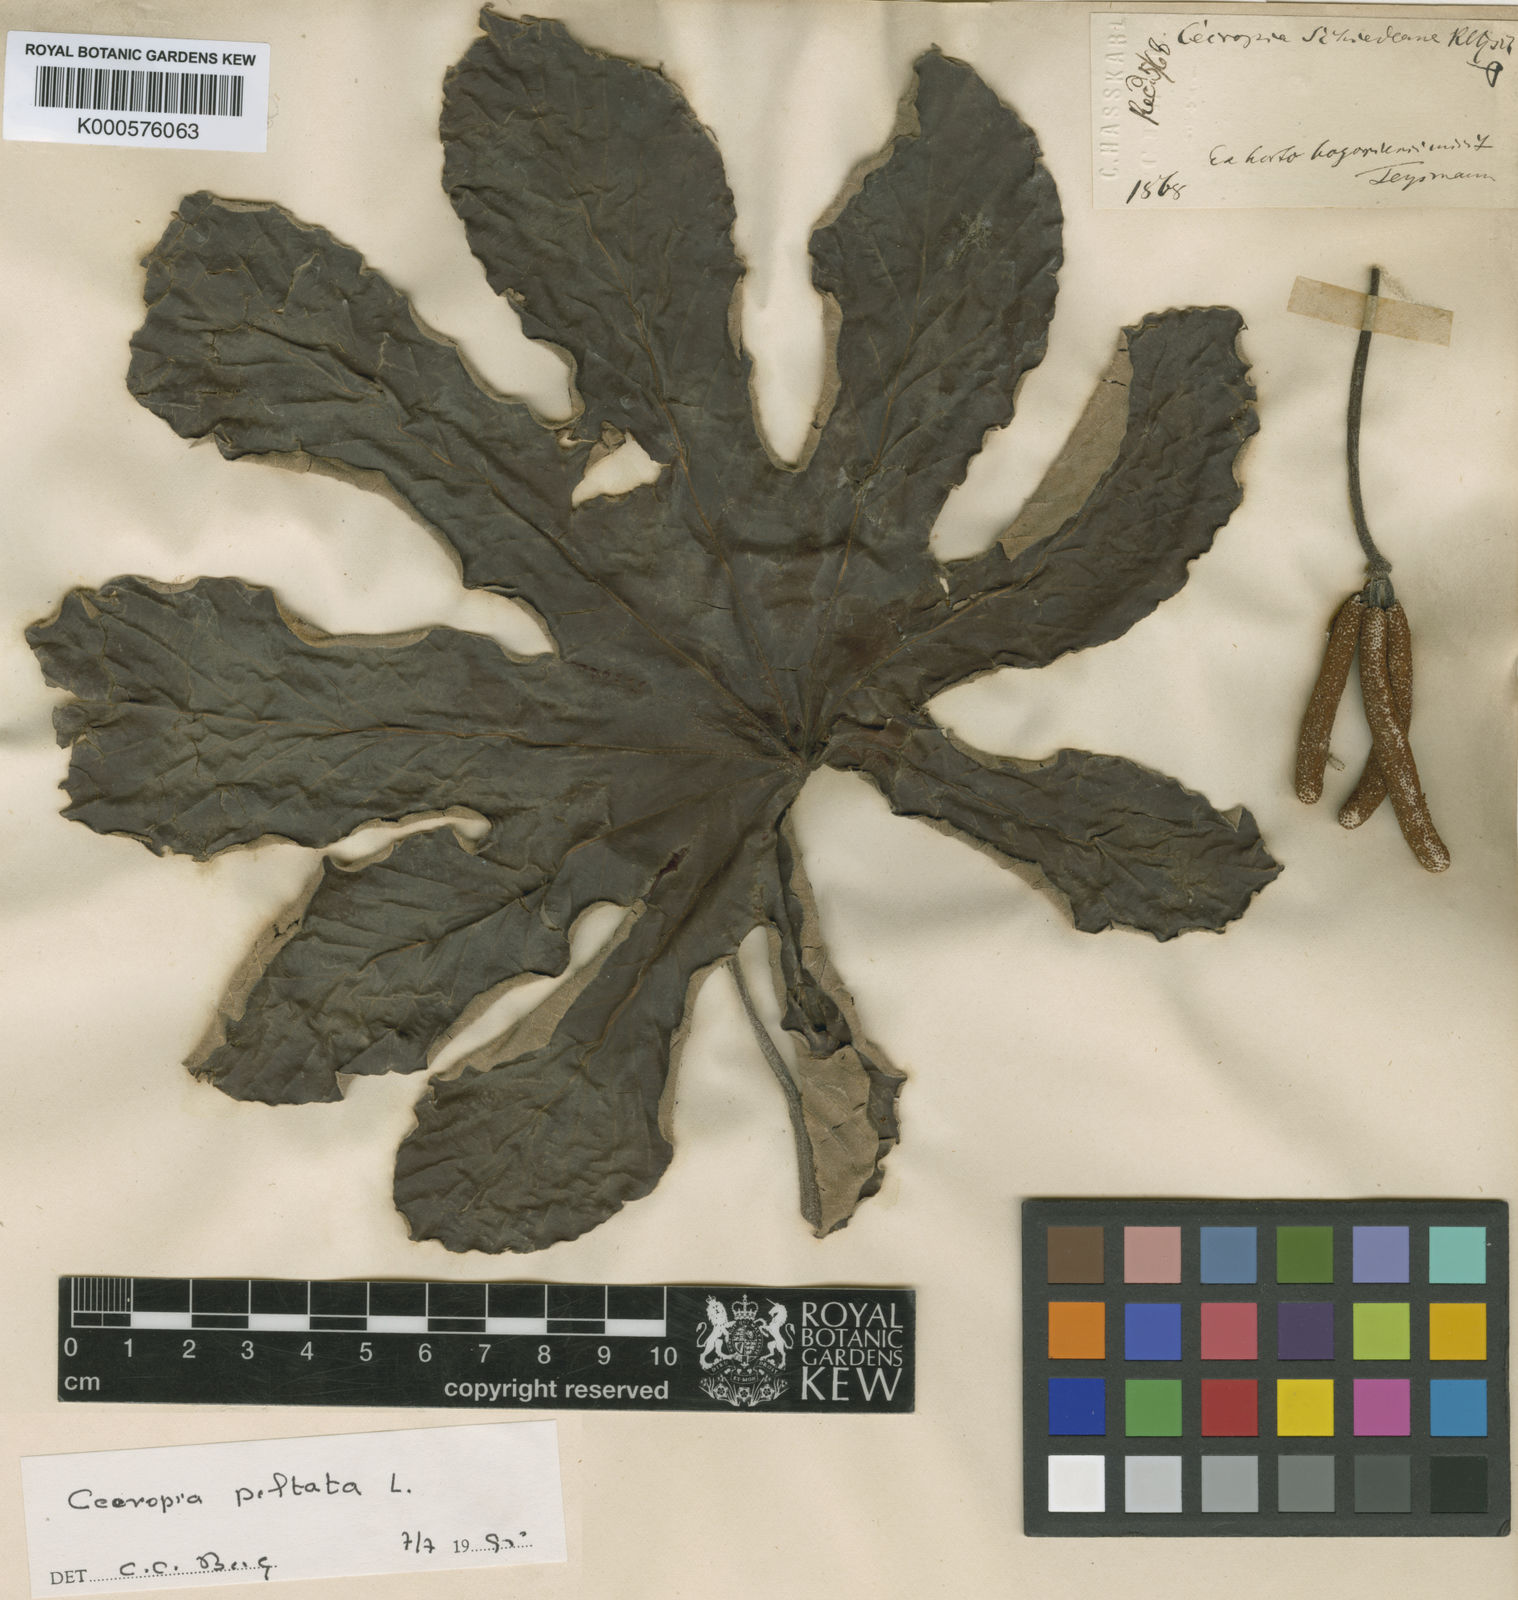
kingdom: Plantae
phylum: Tracheophyta
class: Magnoliopsida
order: Rosales
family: Urticaceae
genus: Cecropia
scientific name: Cecropia peltata
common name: Trumpet-tree
